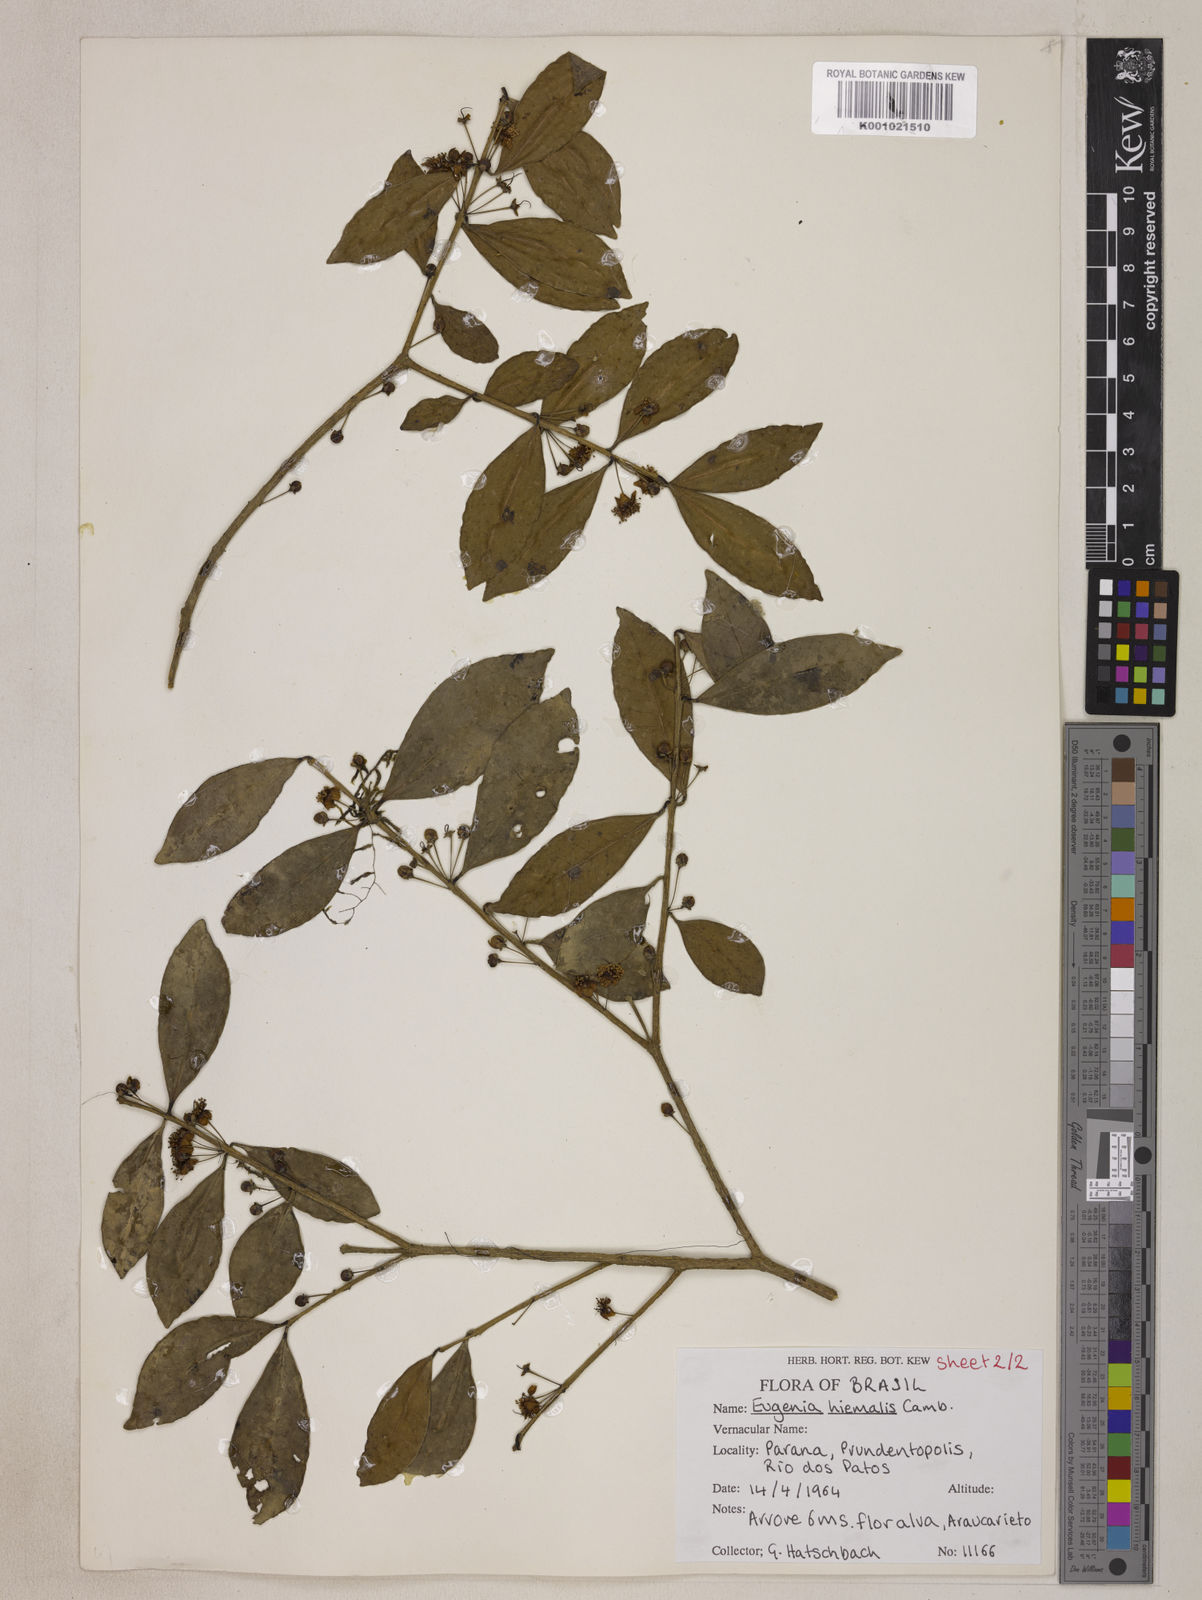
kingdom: Plantae
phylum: Tracheophyta
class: Magnoliopsida
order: Myrtales
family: Myrtaceae
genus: Eugenia
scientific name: Eugenia hiemalis
